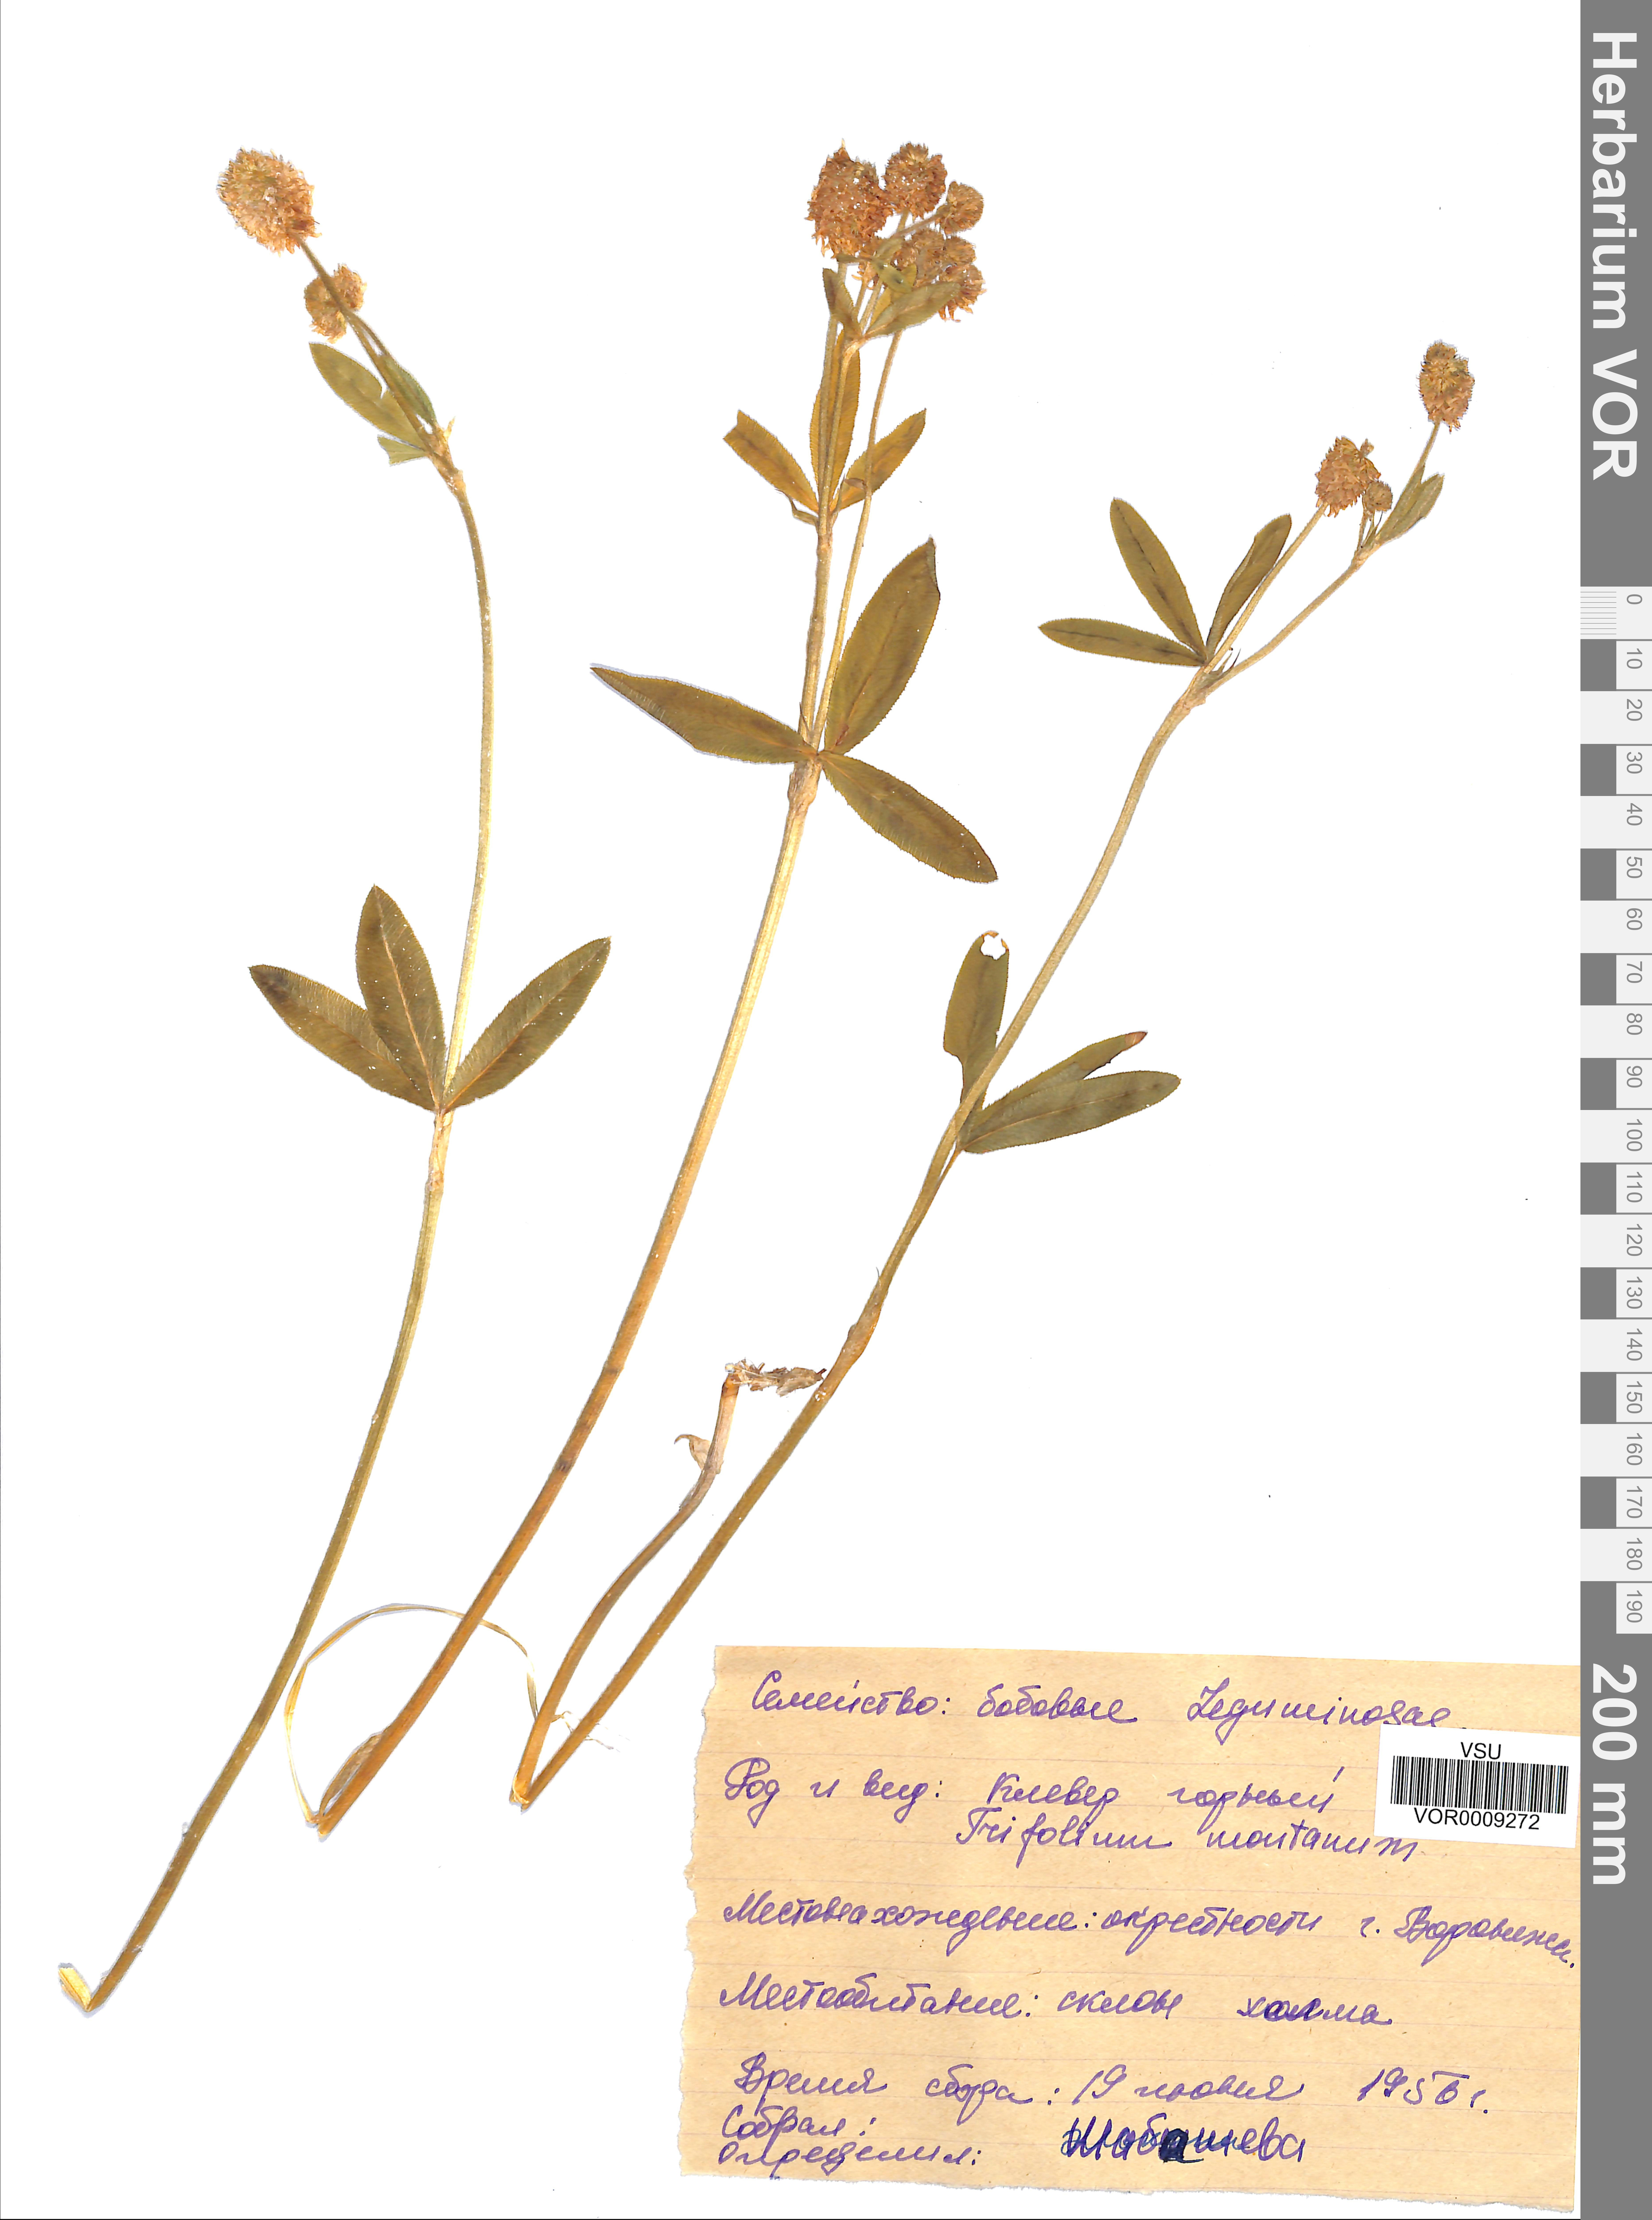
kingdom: Plantae
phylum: Tracheophyta
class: Magnoliopsida
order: Fabales
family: Fabaceae
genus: Trifolium
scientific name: Trifolium montanum
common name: Mountain clover
